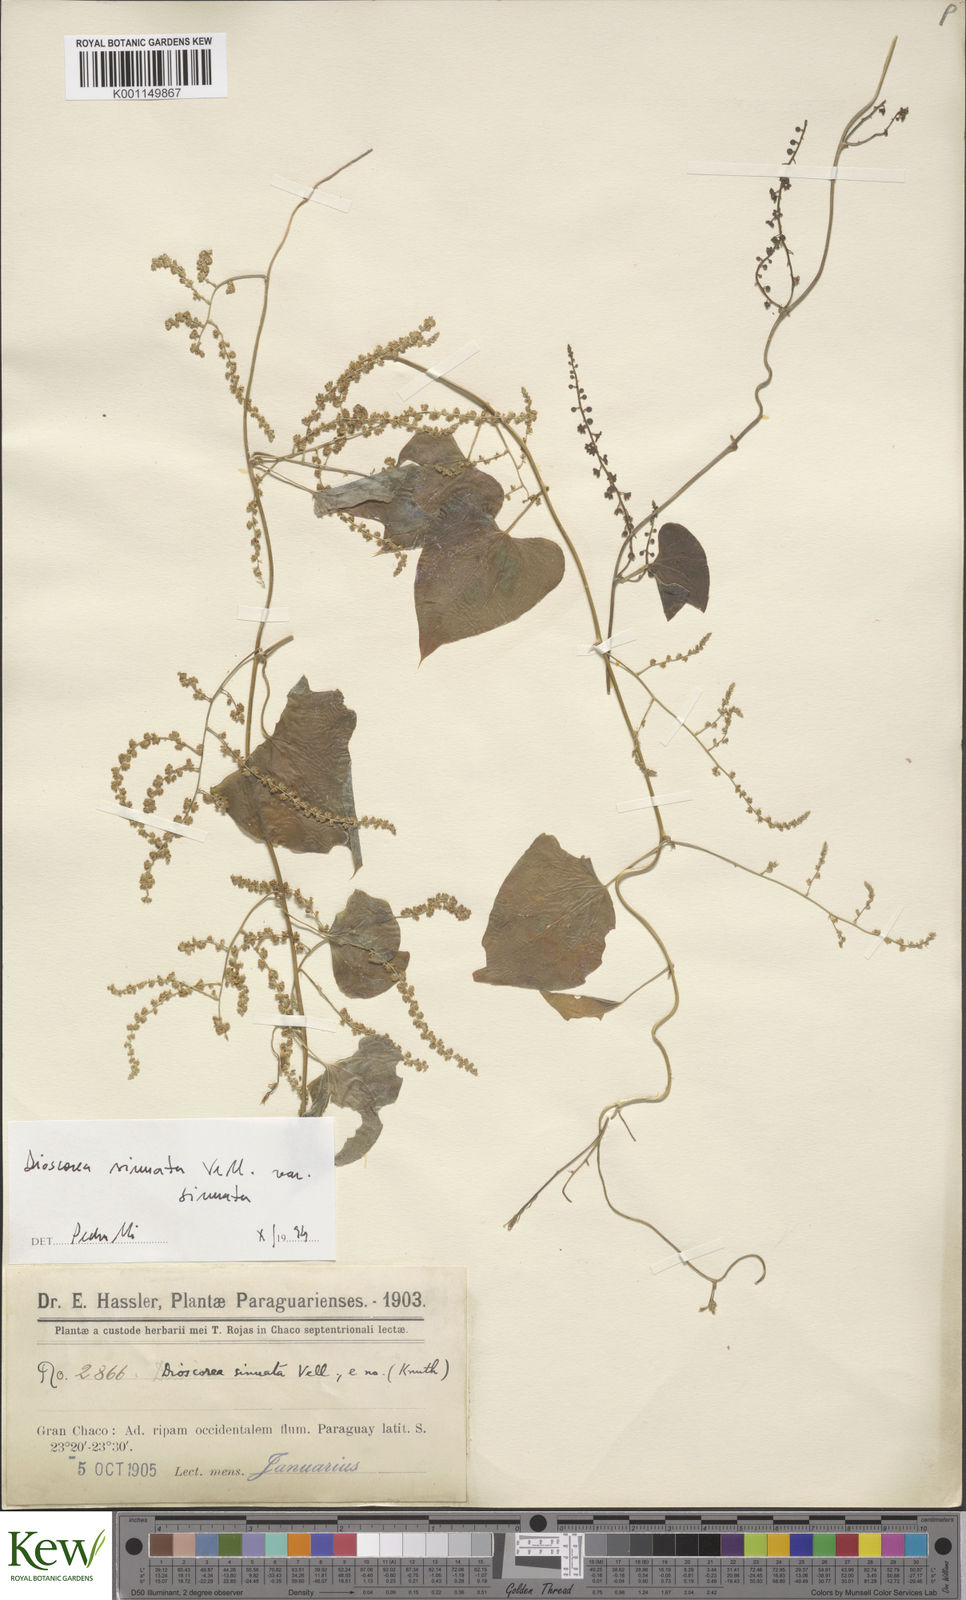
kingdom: Plantae
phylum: Tracheophyta
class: Liliopsida
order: Dioscoreales
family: Dioscoreaceae
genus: Dioscorea
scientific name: Dioscorea sinuata
